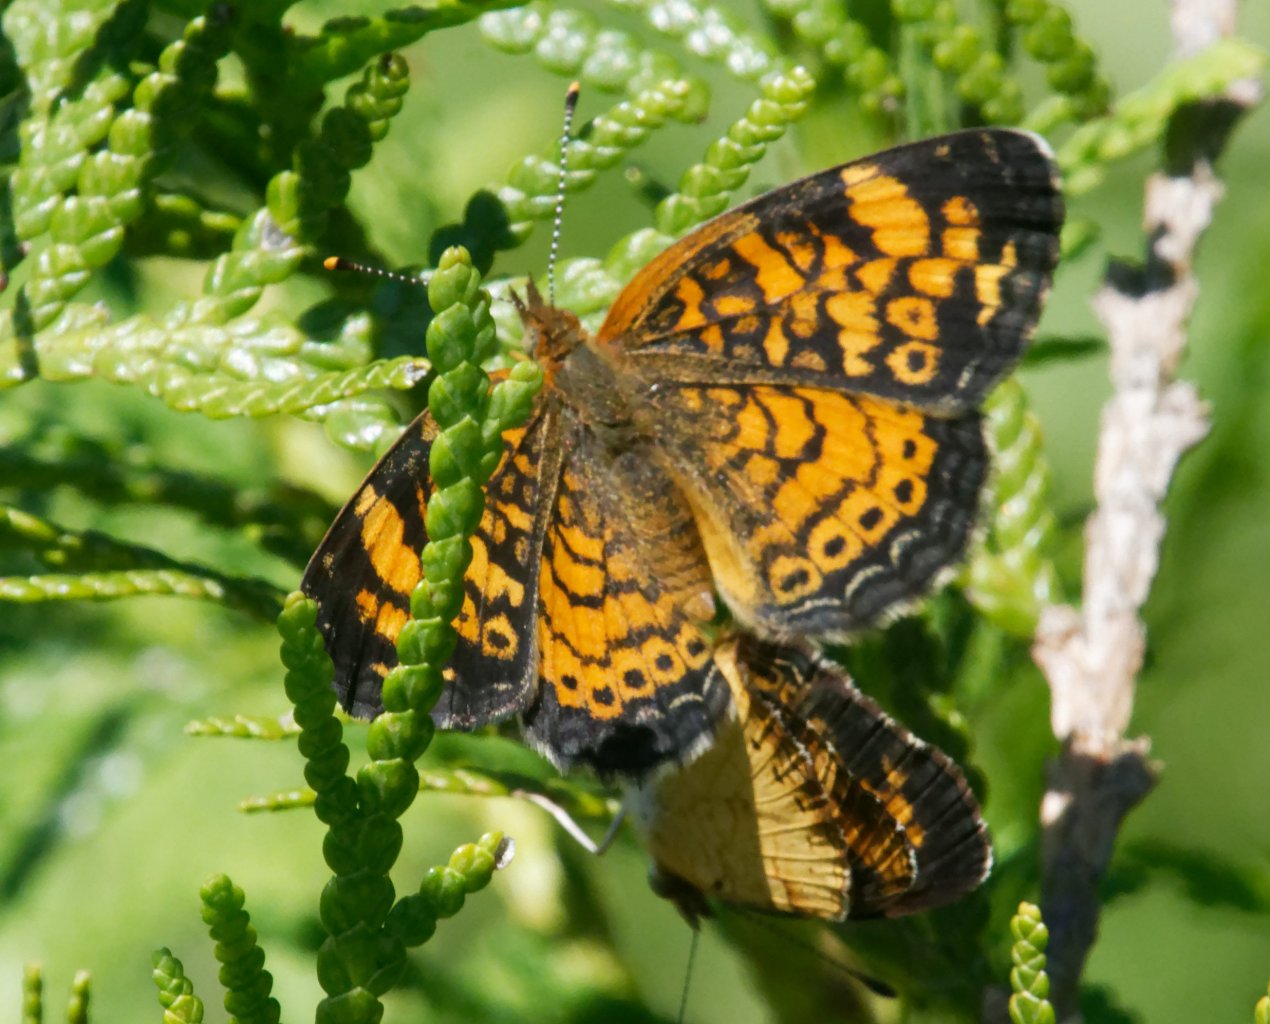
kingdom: Animalia
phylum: Arthropoda
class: Insecta
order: Lepidoptera
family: Nymphalidae
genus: Phyciodes
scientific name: Phyciodes
